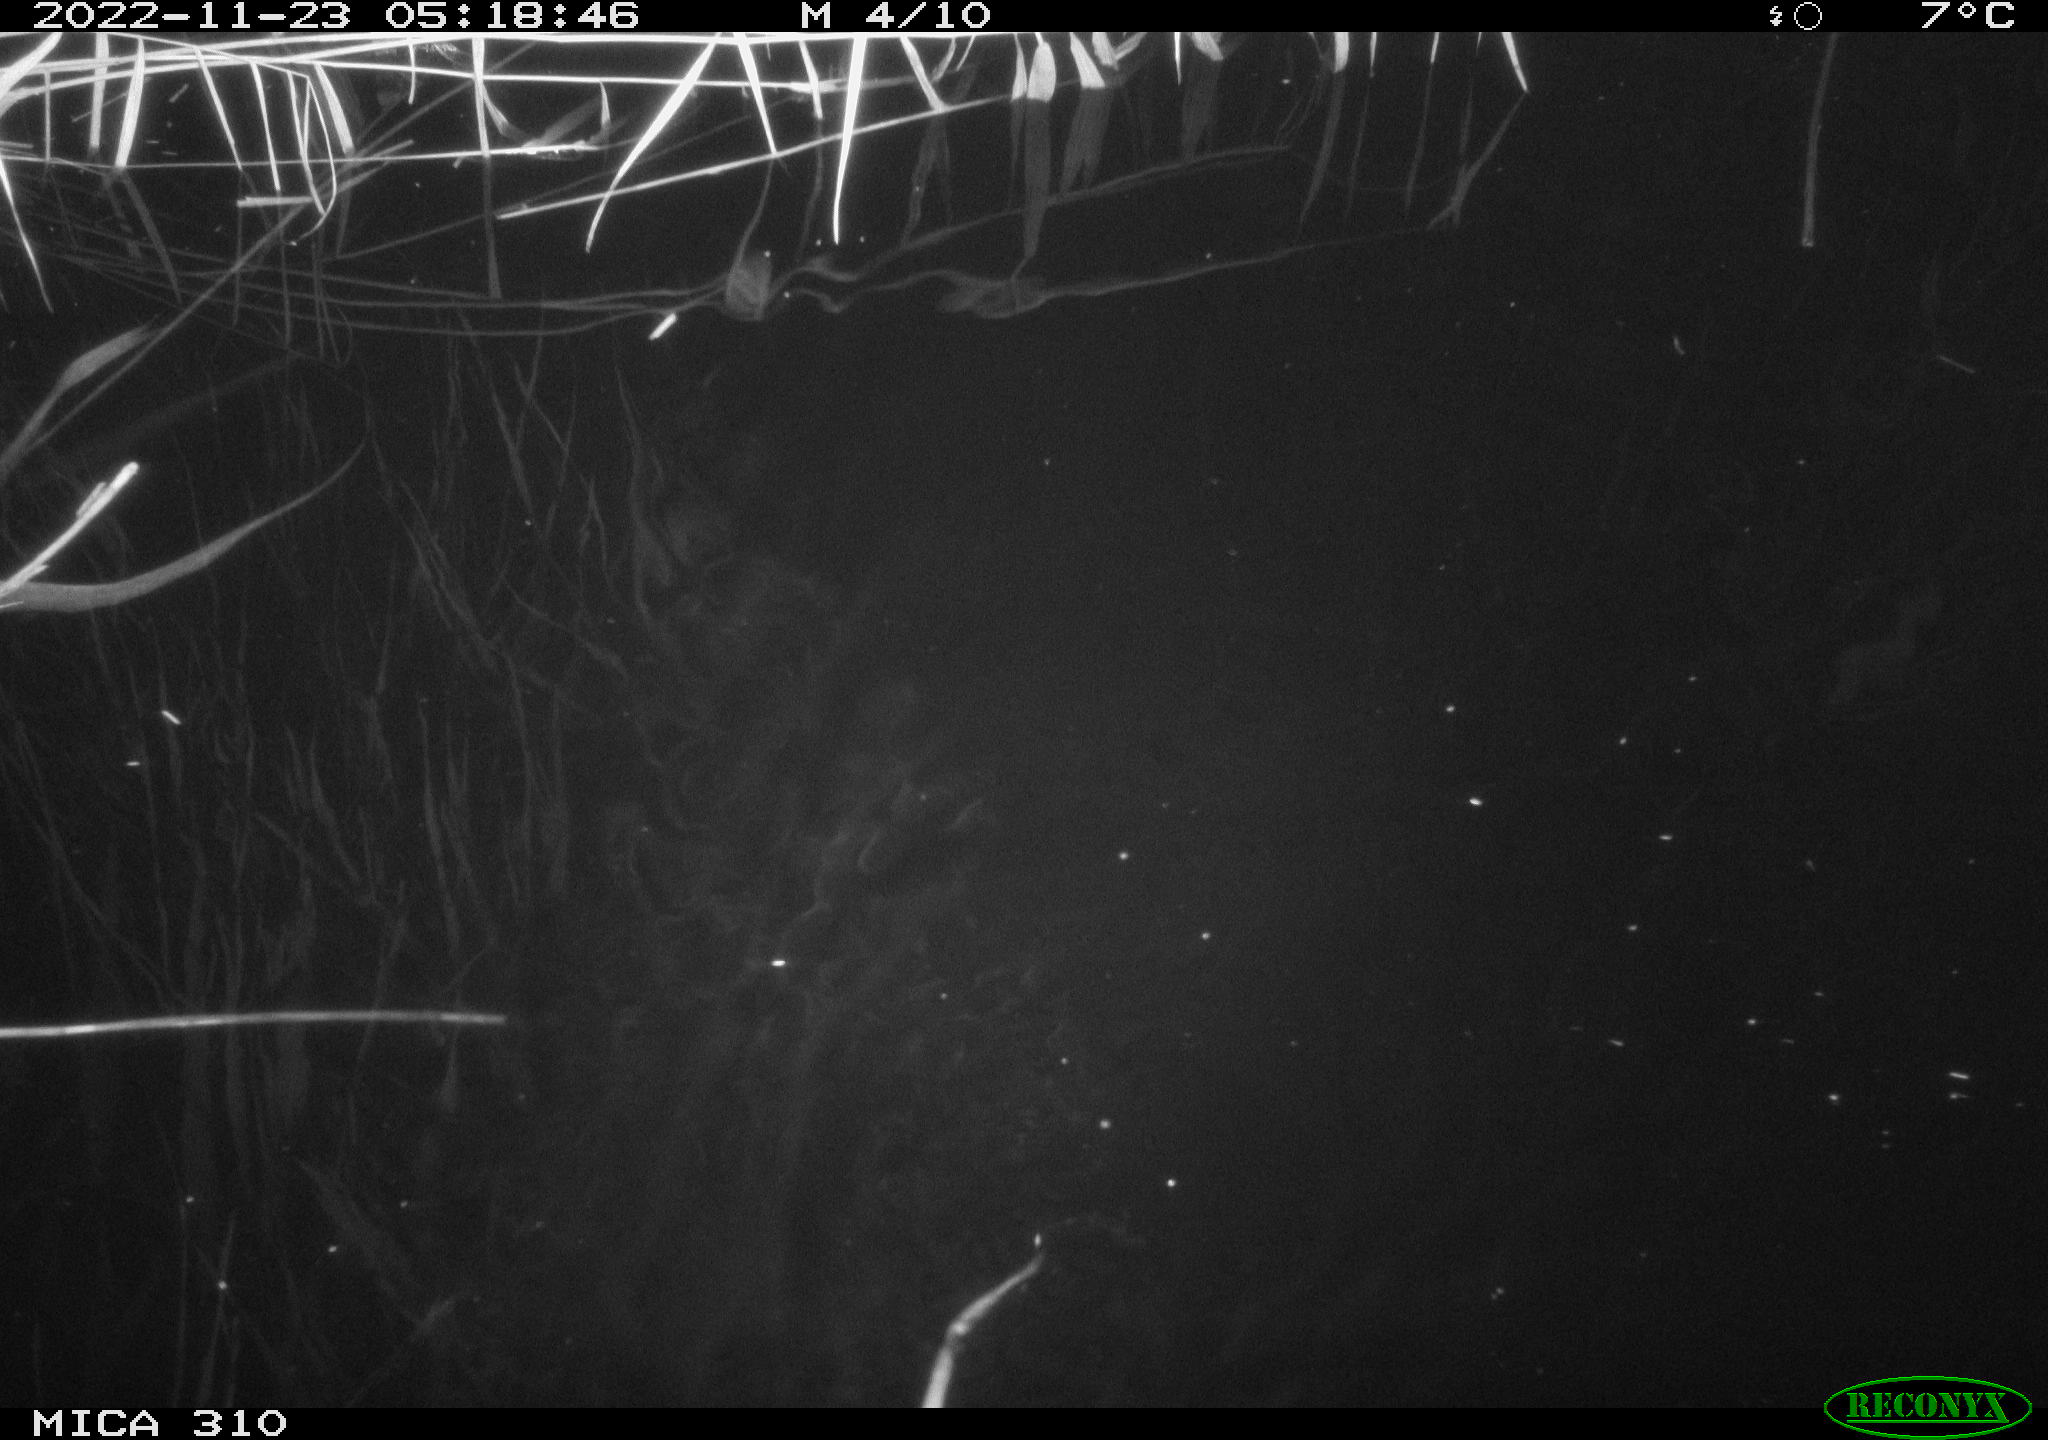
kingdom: Animalia
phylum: Chordata
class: Mammalia
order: Rodentia
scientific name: Rodentia
